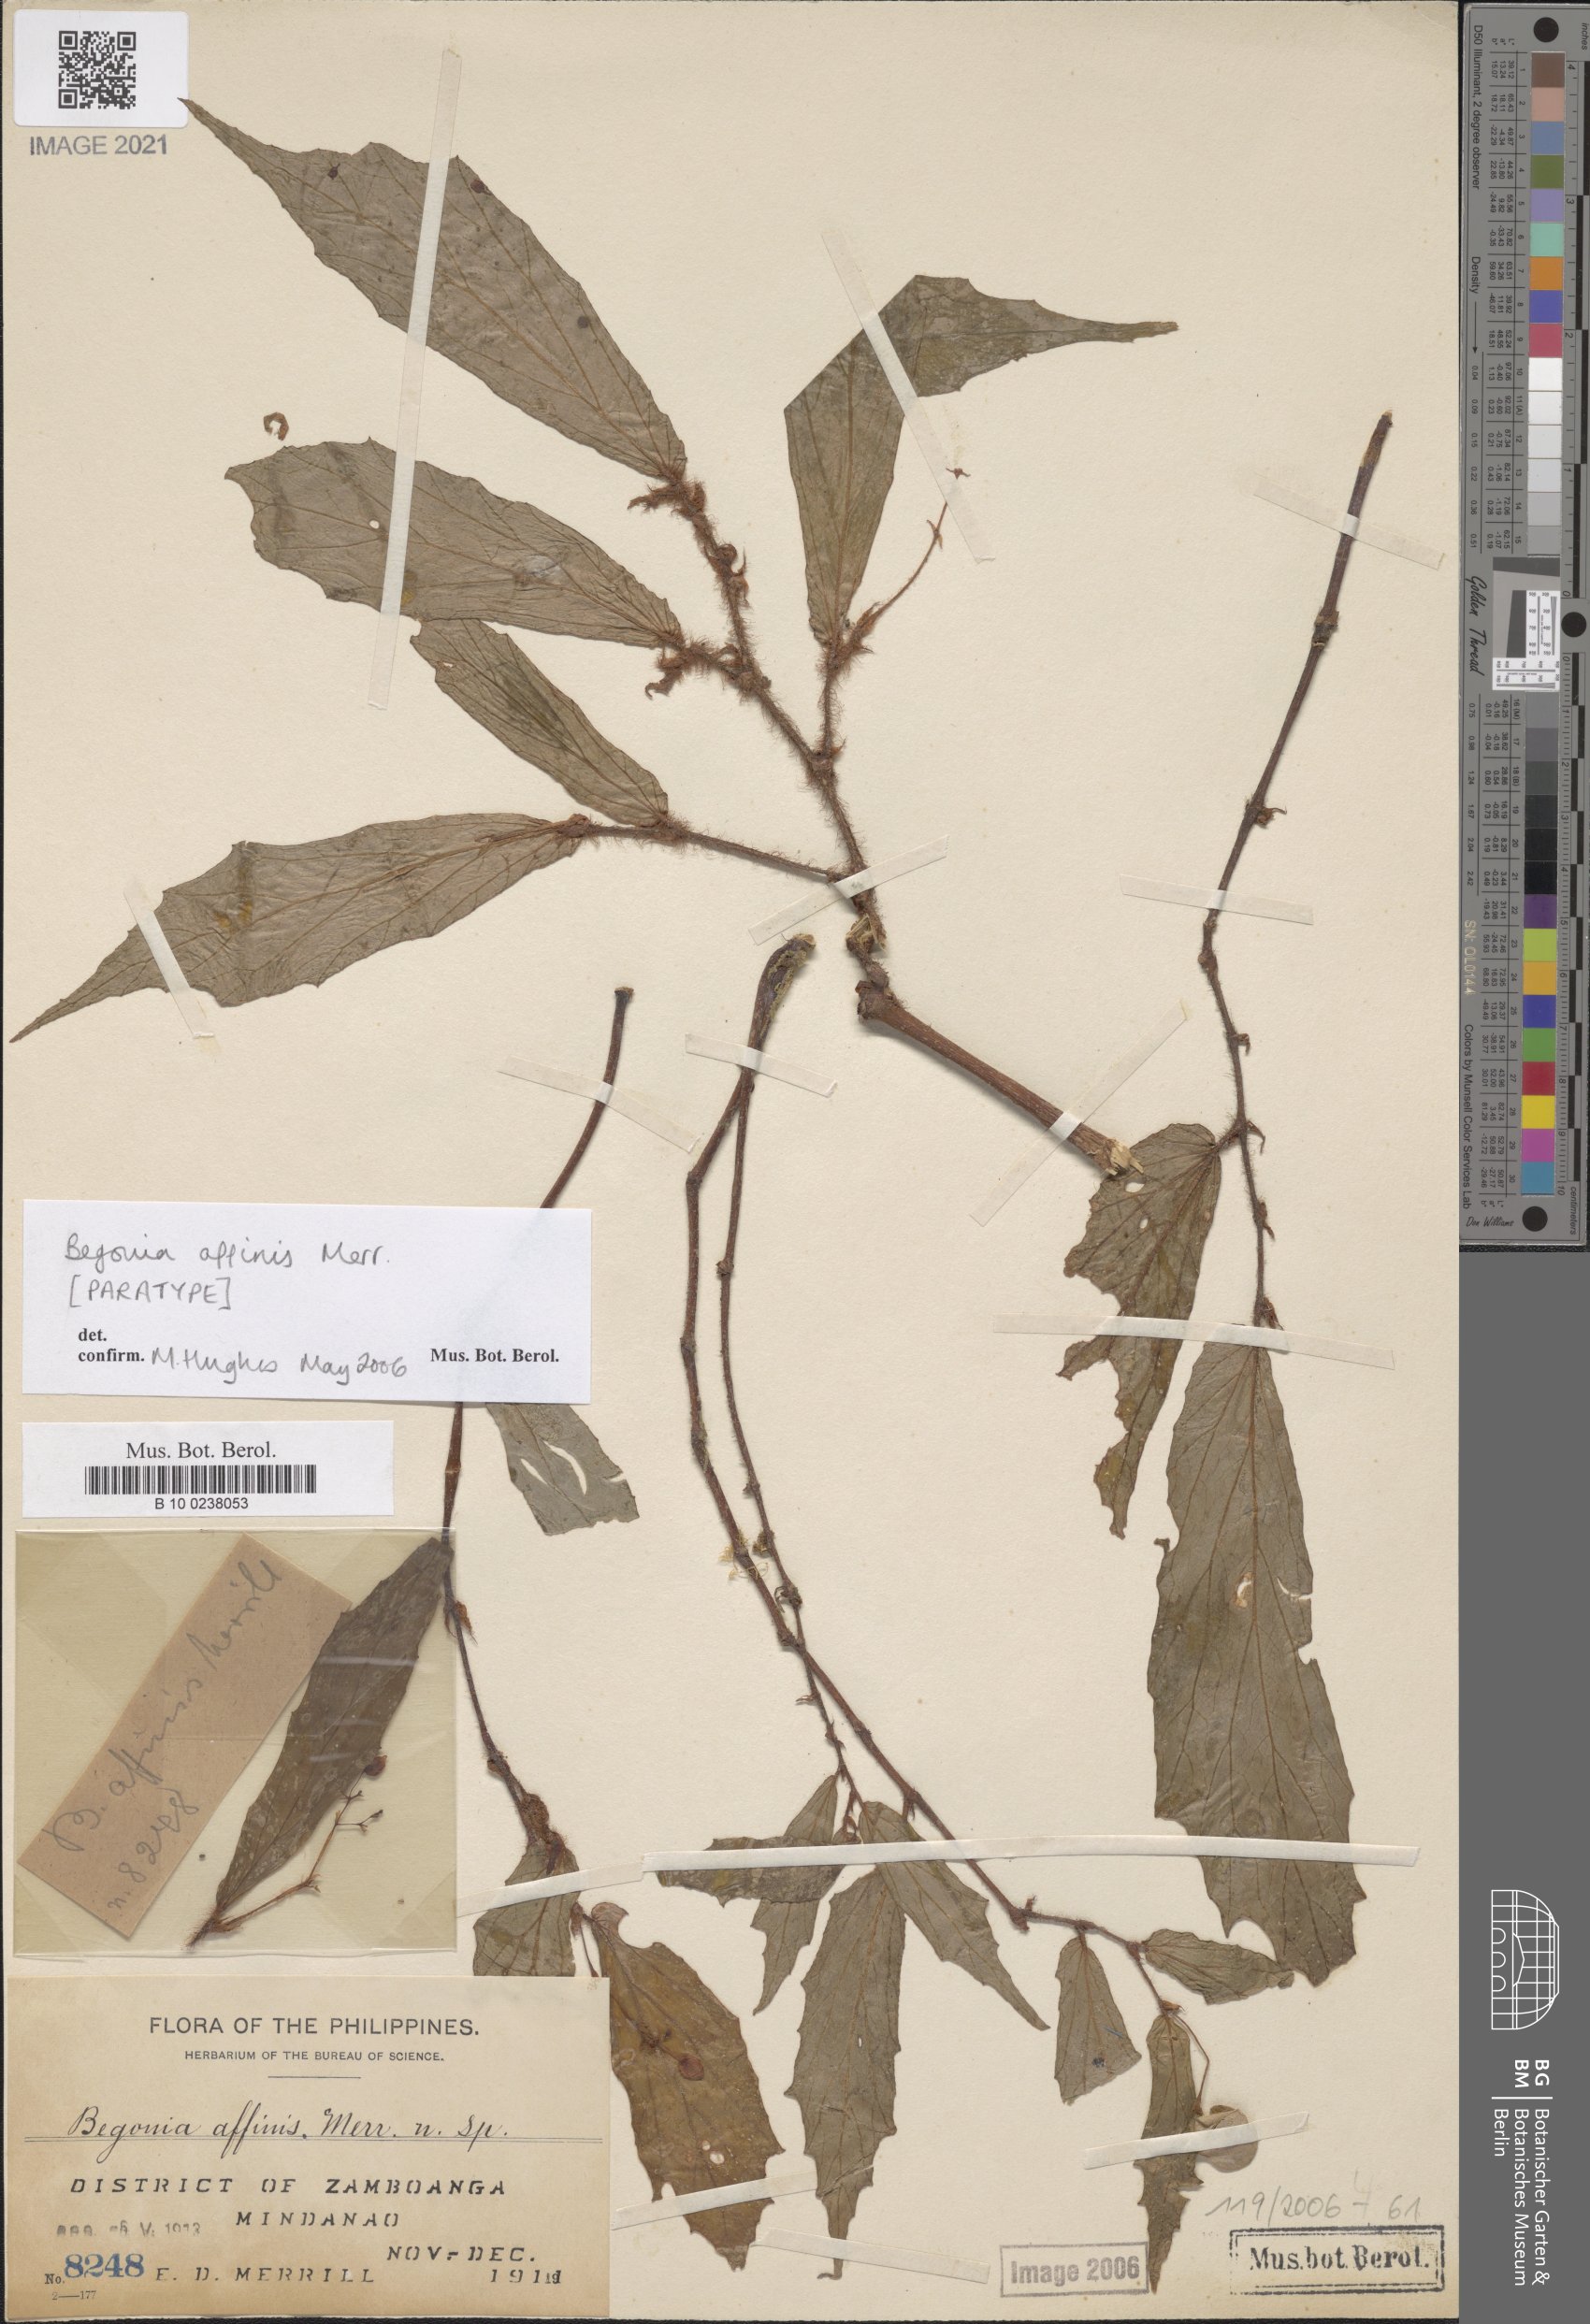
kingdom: Plantae
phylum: Tracheophyta
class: Magnoliopsida
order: Cucurbitales
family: Begoniaceae
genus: Begonia
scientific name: Begonia affinis
